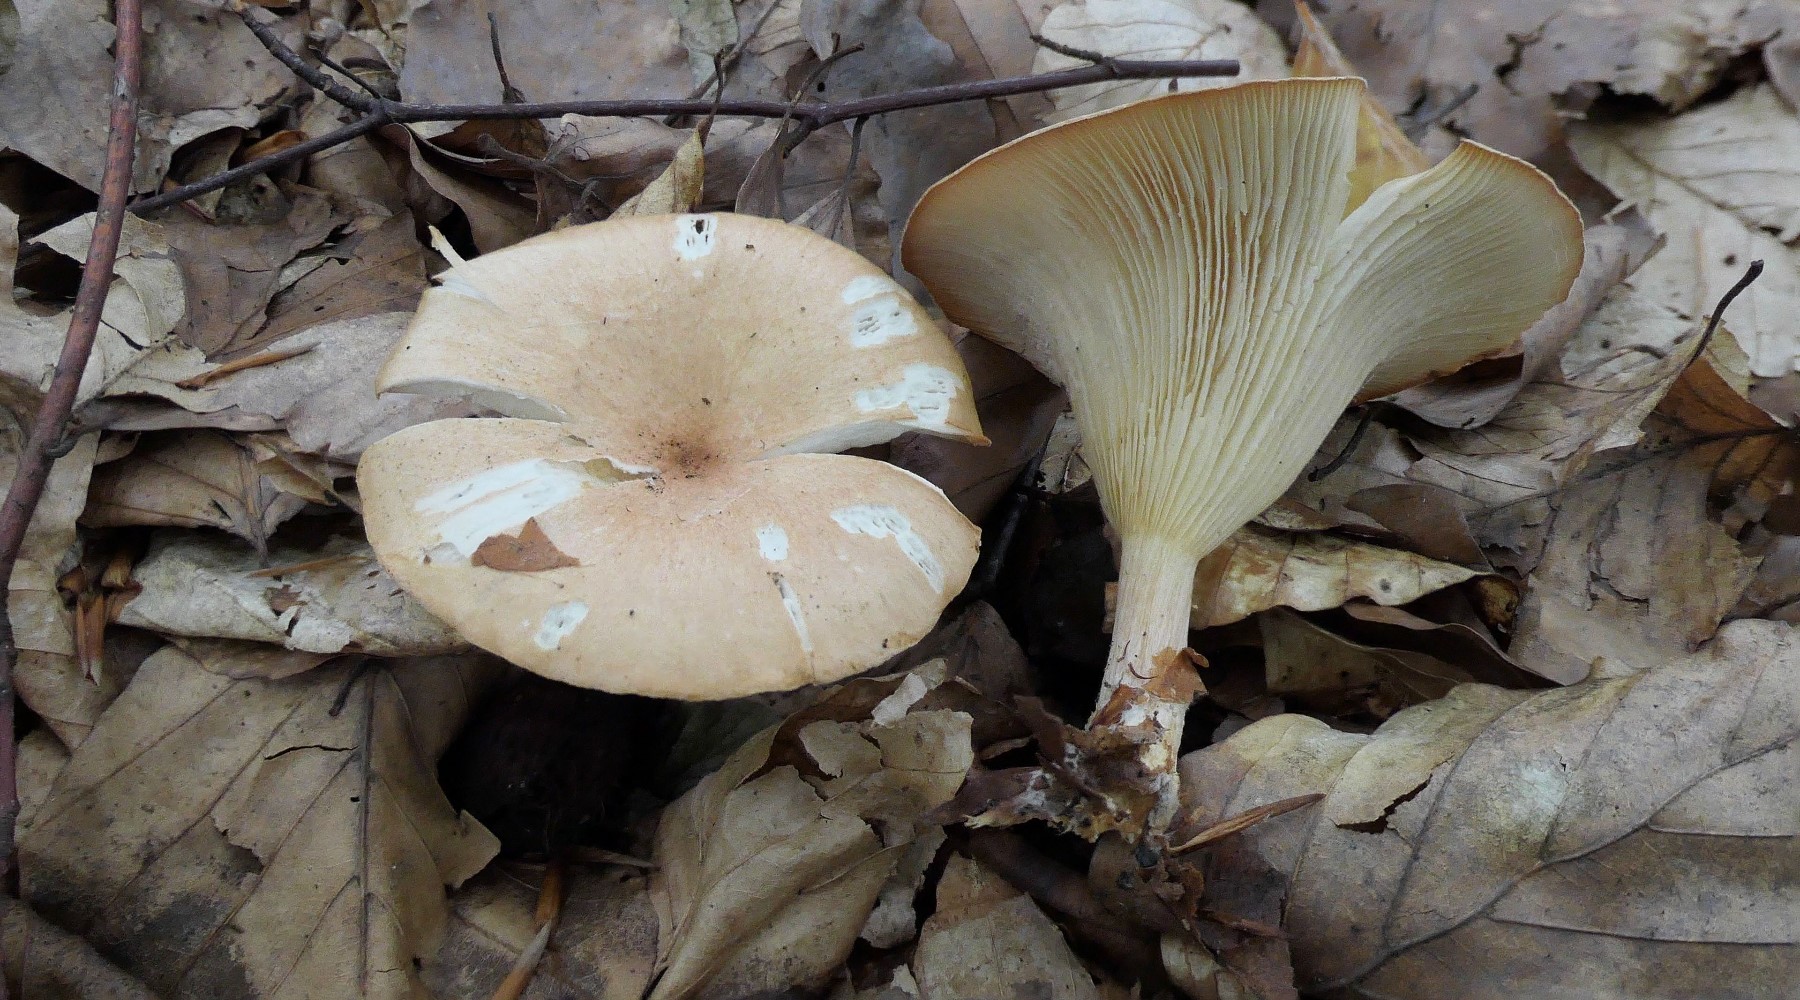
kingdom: Fungi
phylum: Basidiomycota
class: Agaricomycetes
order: Agaricales
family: Tricholomataceae
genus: Infundibulicybe
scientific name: Infundibulicybe gibba
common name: almindelig tragthat
